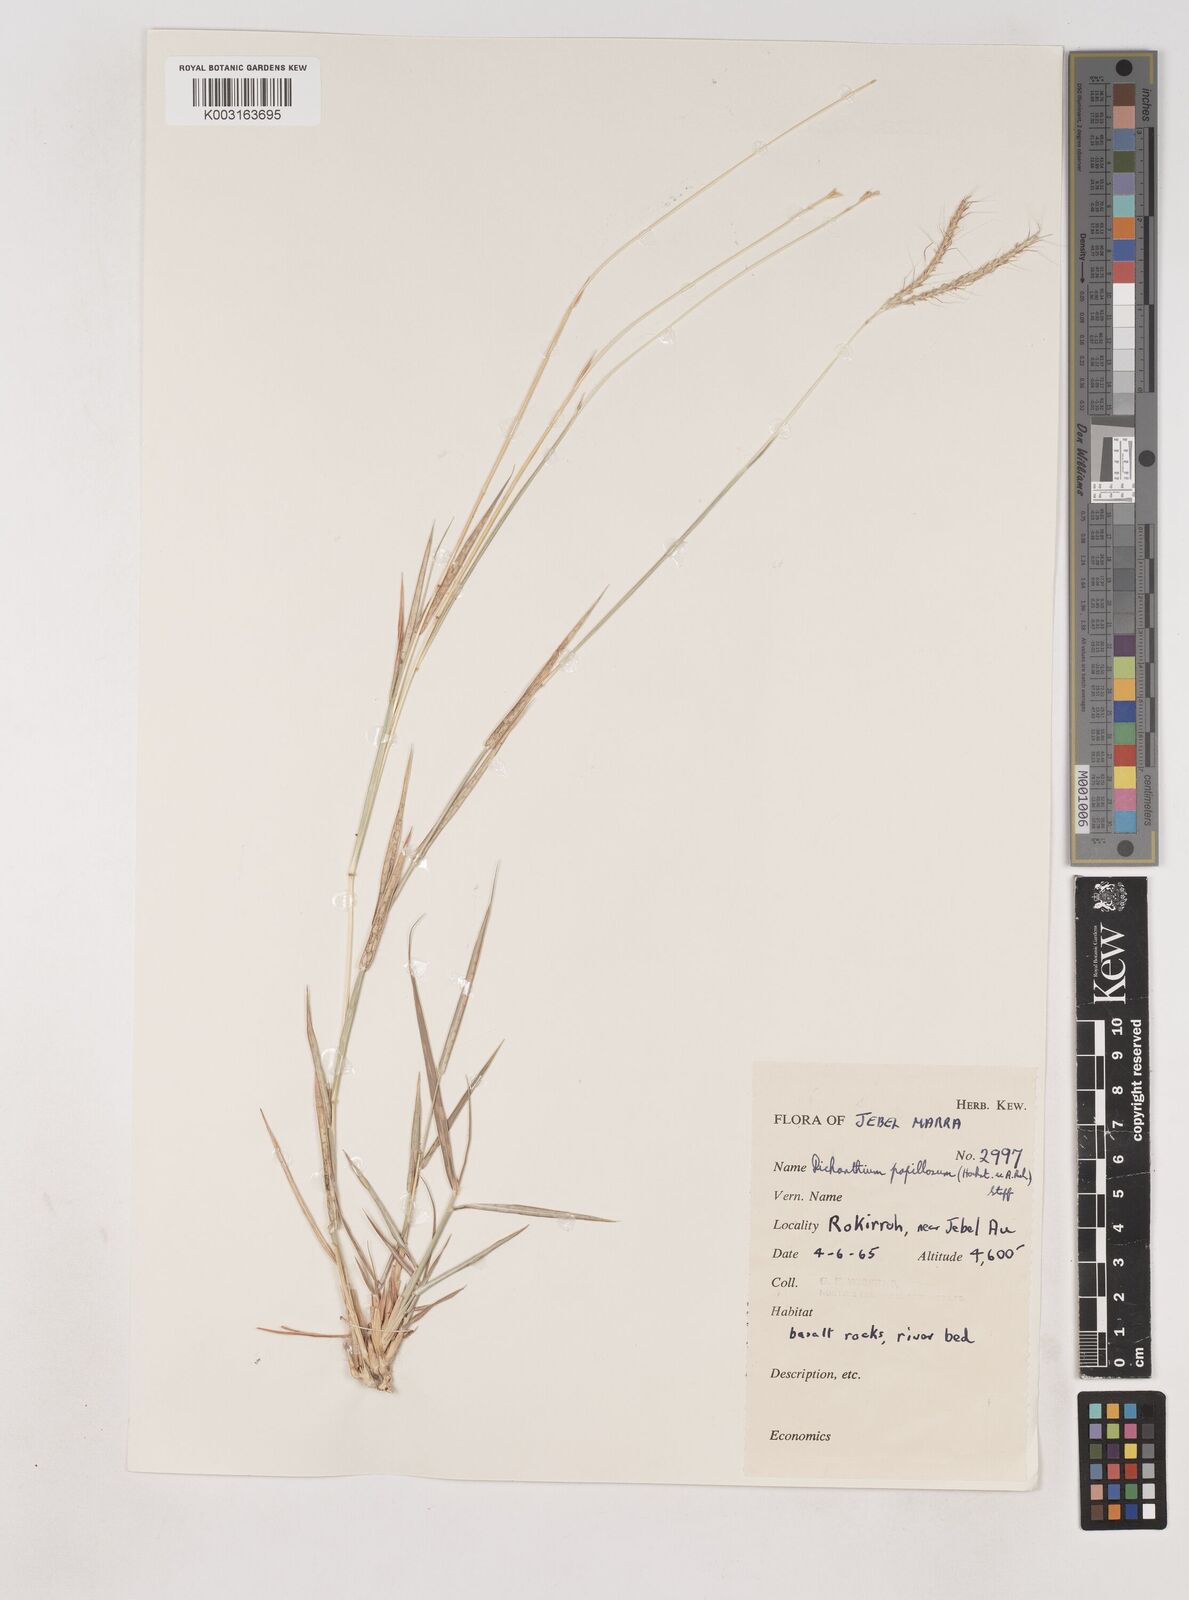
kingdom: Plantae
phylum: Tracheophyta
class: Liliopsida
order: Poales
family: Poaceae
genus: Dichanthium
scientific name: Dichanthium annulatum
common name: Kleberg's bluestem
